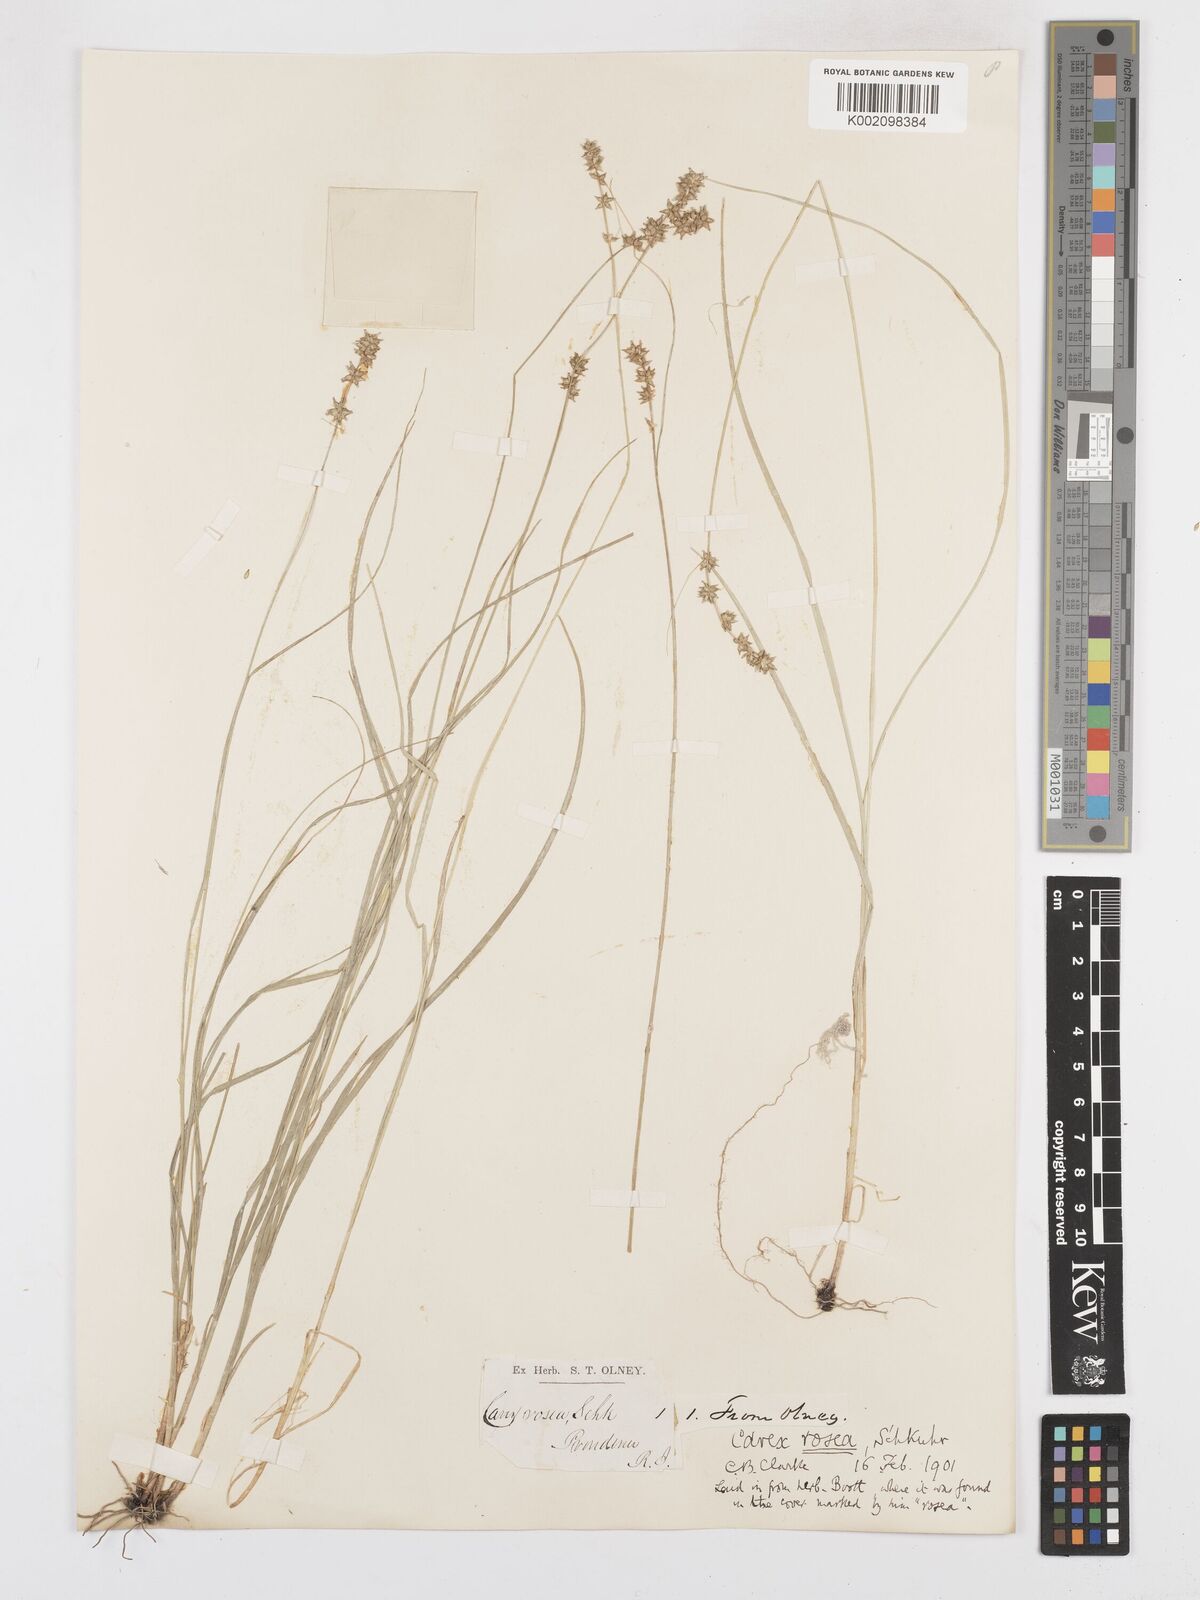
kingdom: Plantae
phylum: Tracheophyta
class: Liliopsida
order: Poales
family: Cyperaceae
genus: Carex
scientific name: Carex rosea
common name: Curly-styled wood sedge
